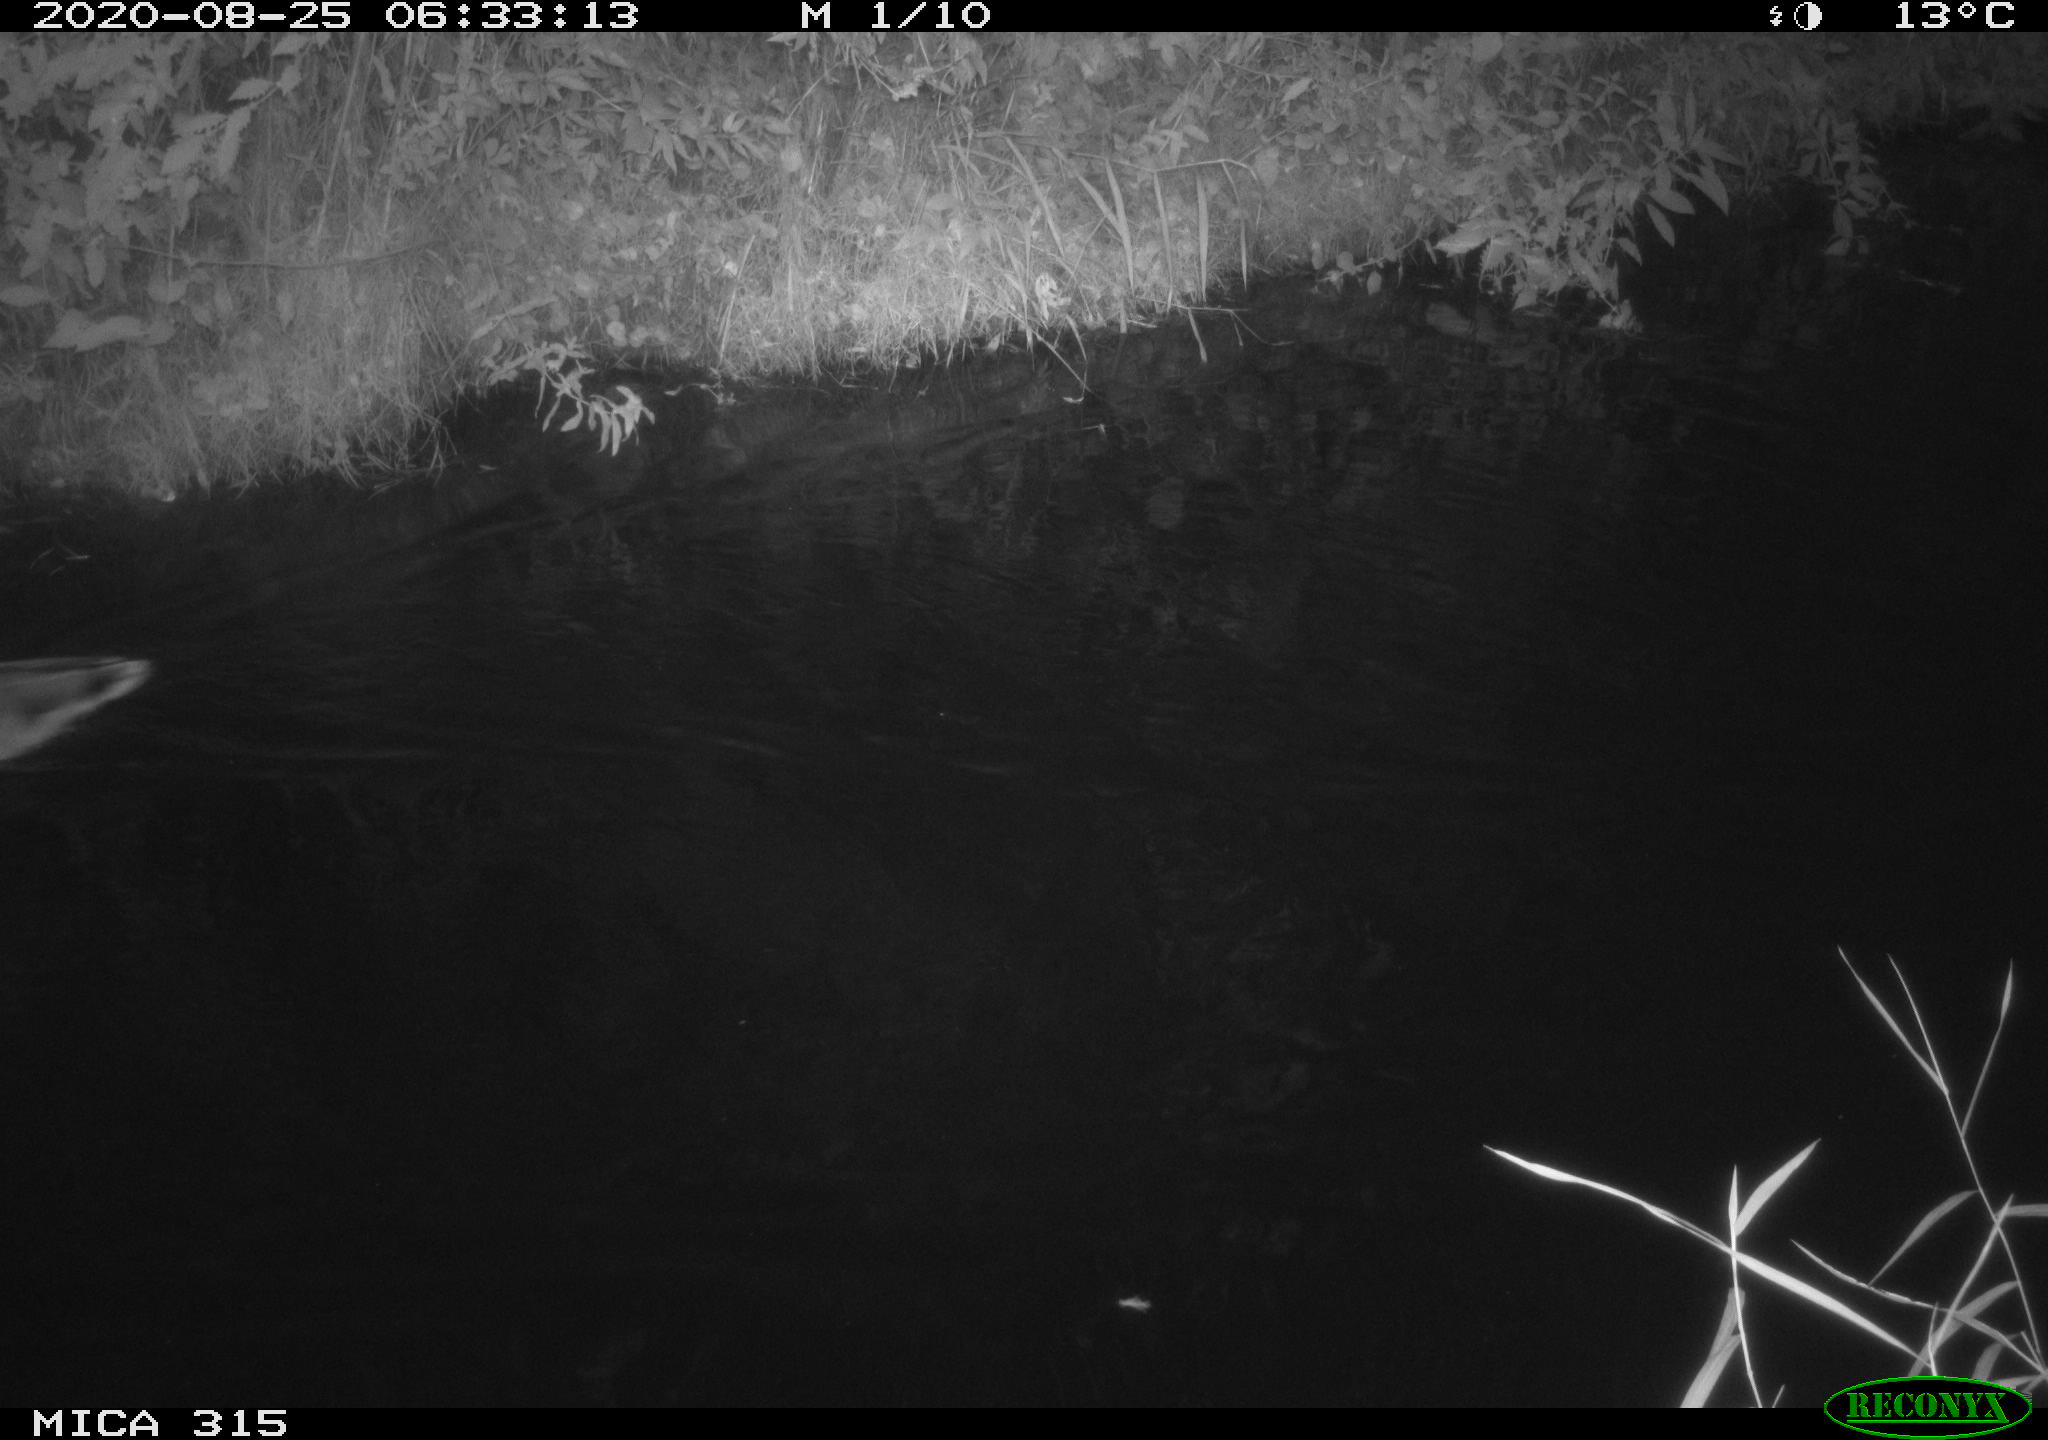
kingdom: Animalia
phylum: Chordata
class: Aves
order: Anseriformes
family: Anatidae
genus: Anas
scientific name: Anas platyrhynchos
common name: Mallard
